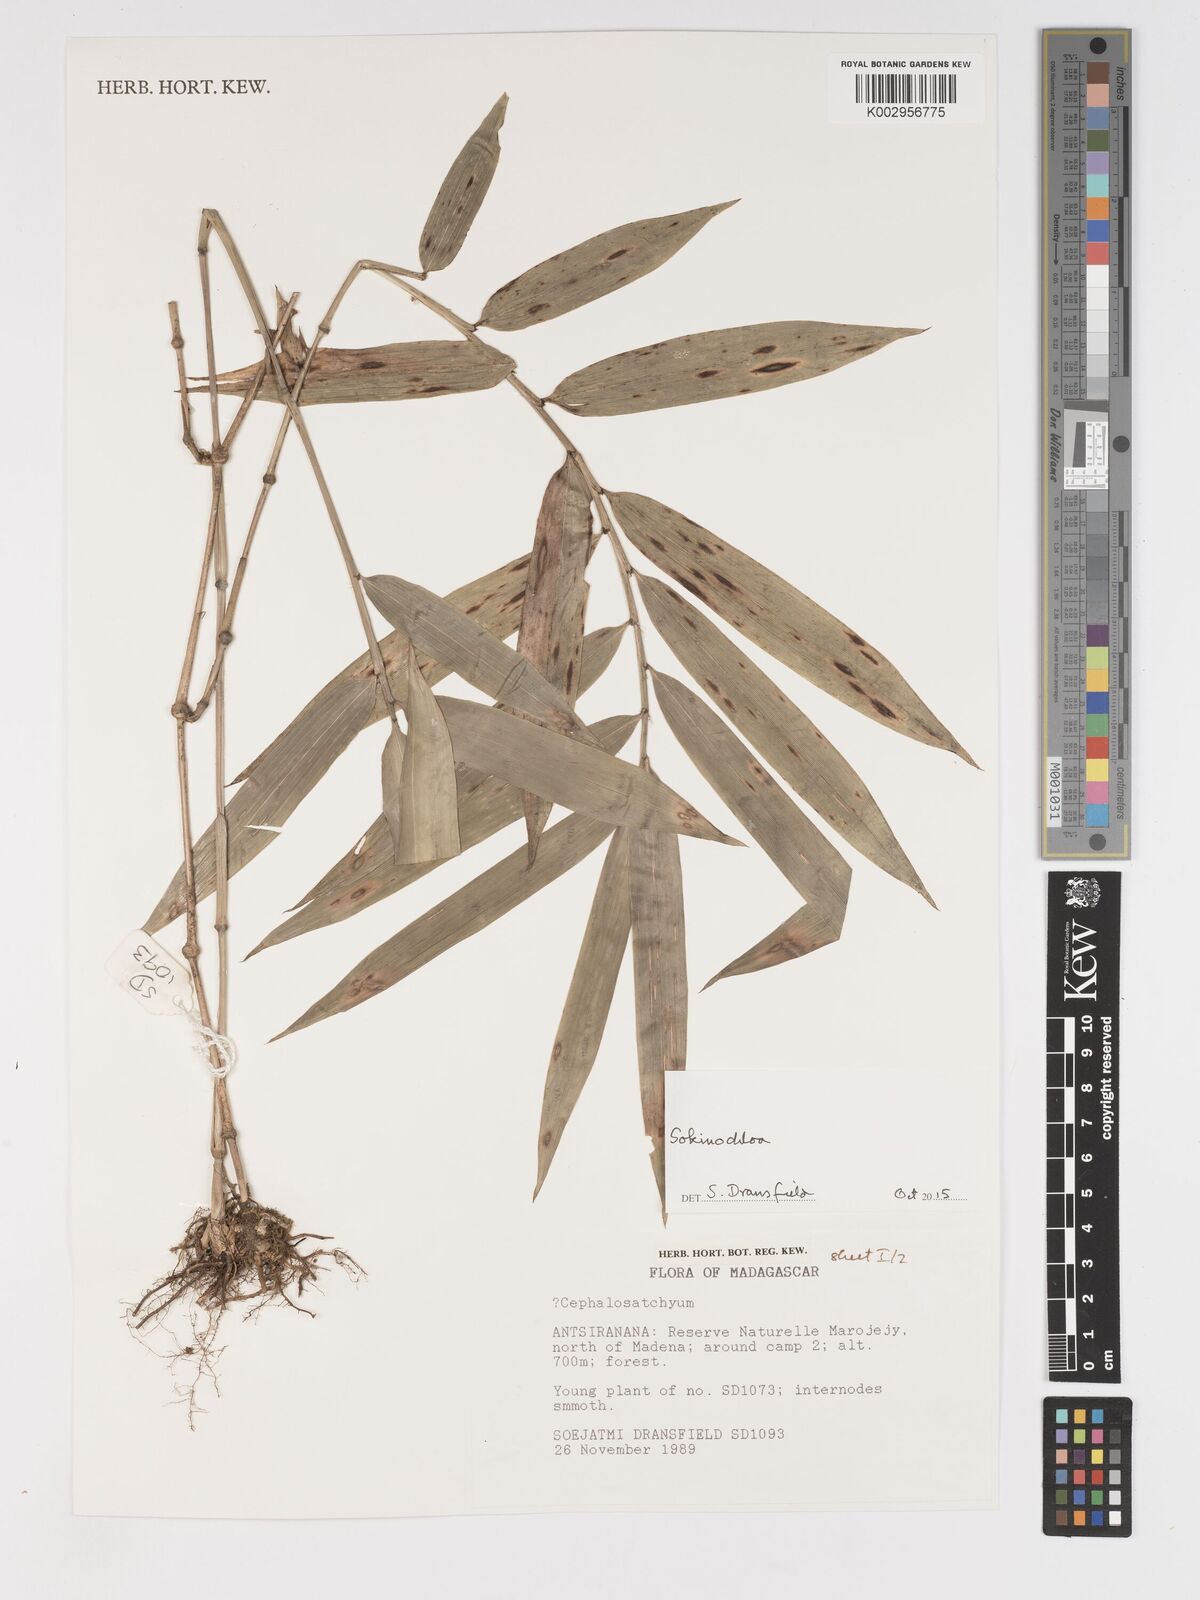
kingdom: Plantae
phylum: Tracheophyta
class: Liliopsida
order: Poales
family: Poaceae
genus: Sokinochloa
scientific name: Sokinochloa
